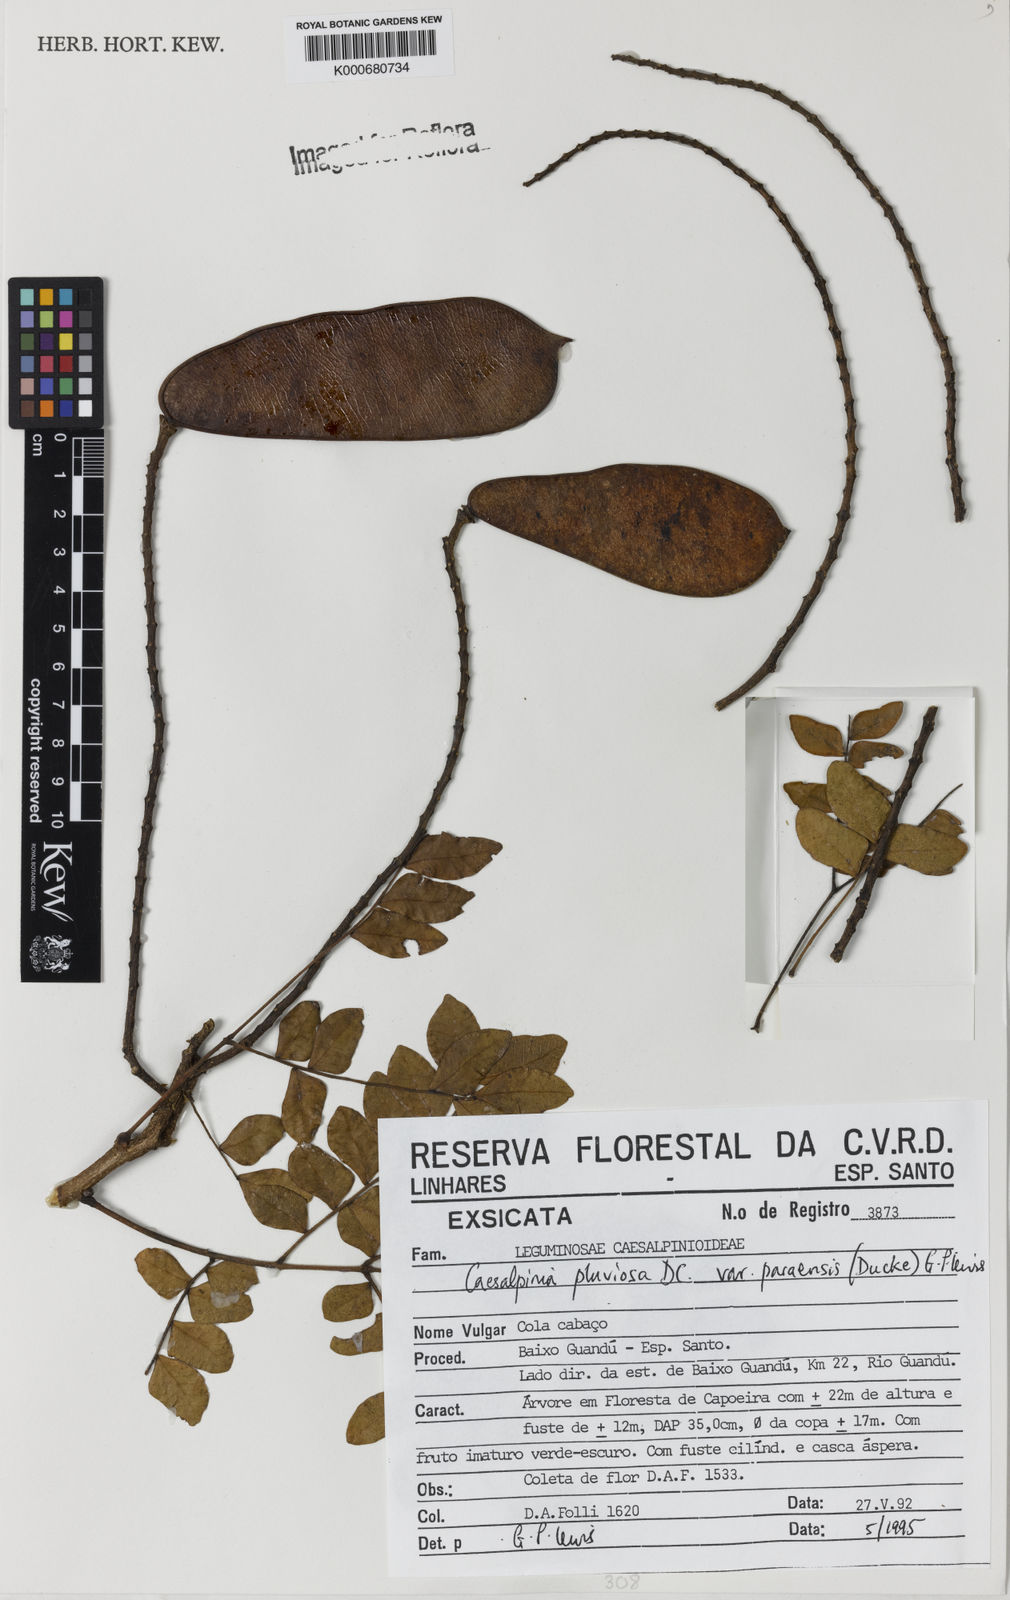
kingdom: Plantae
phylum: Tracheophyta
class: Magnoliopsida
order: Fabales
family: Fabaceae
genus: Cenostigma
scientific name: Cenostigma pluviosum
